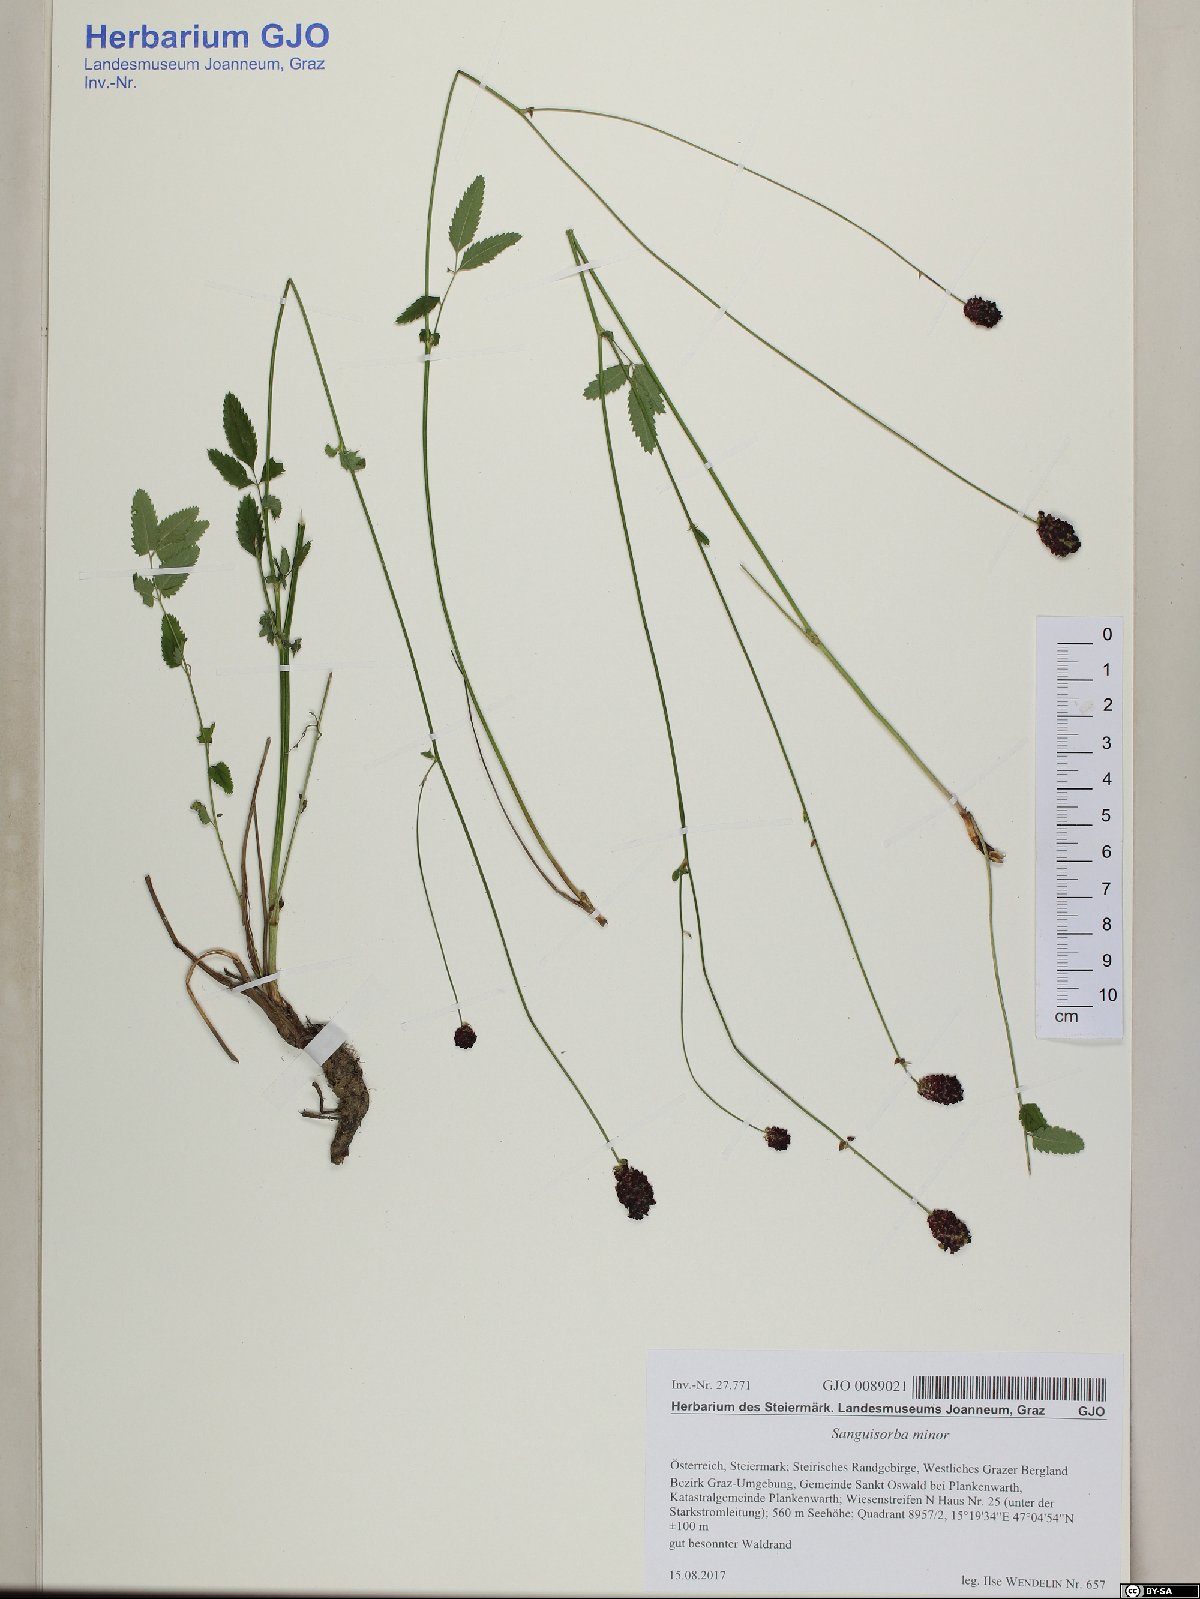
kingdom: Plantae
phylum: Tracheophyta
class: Magnoliopsida
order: Rosales
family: Rosaceae
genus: Poterium
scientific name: Poterium sanguisorba
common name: Salad burnet
